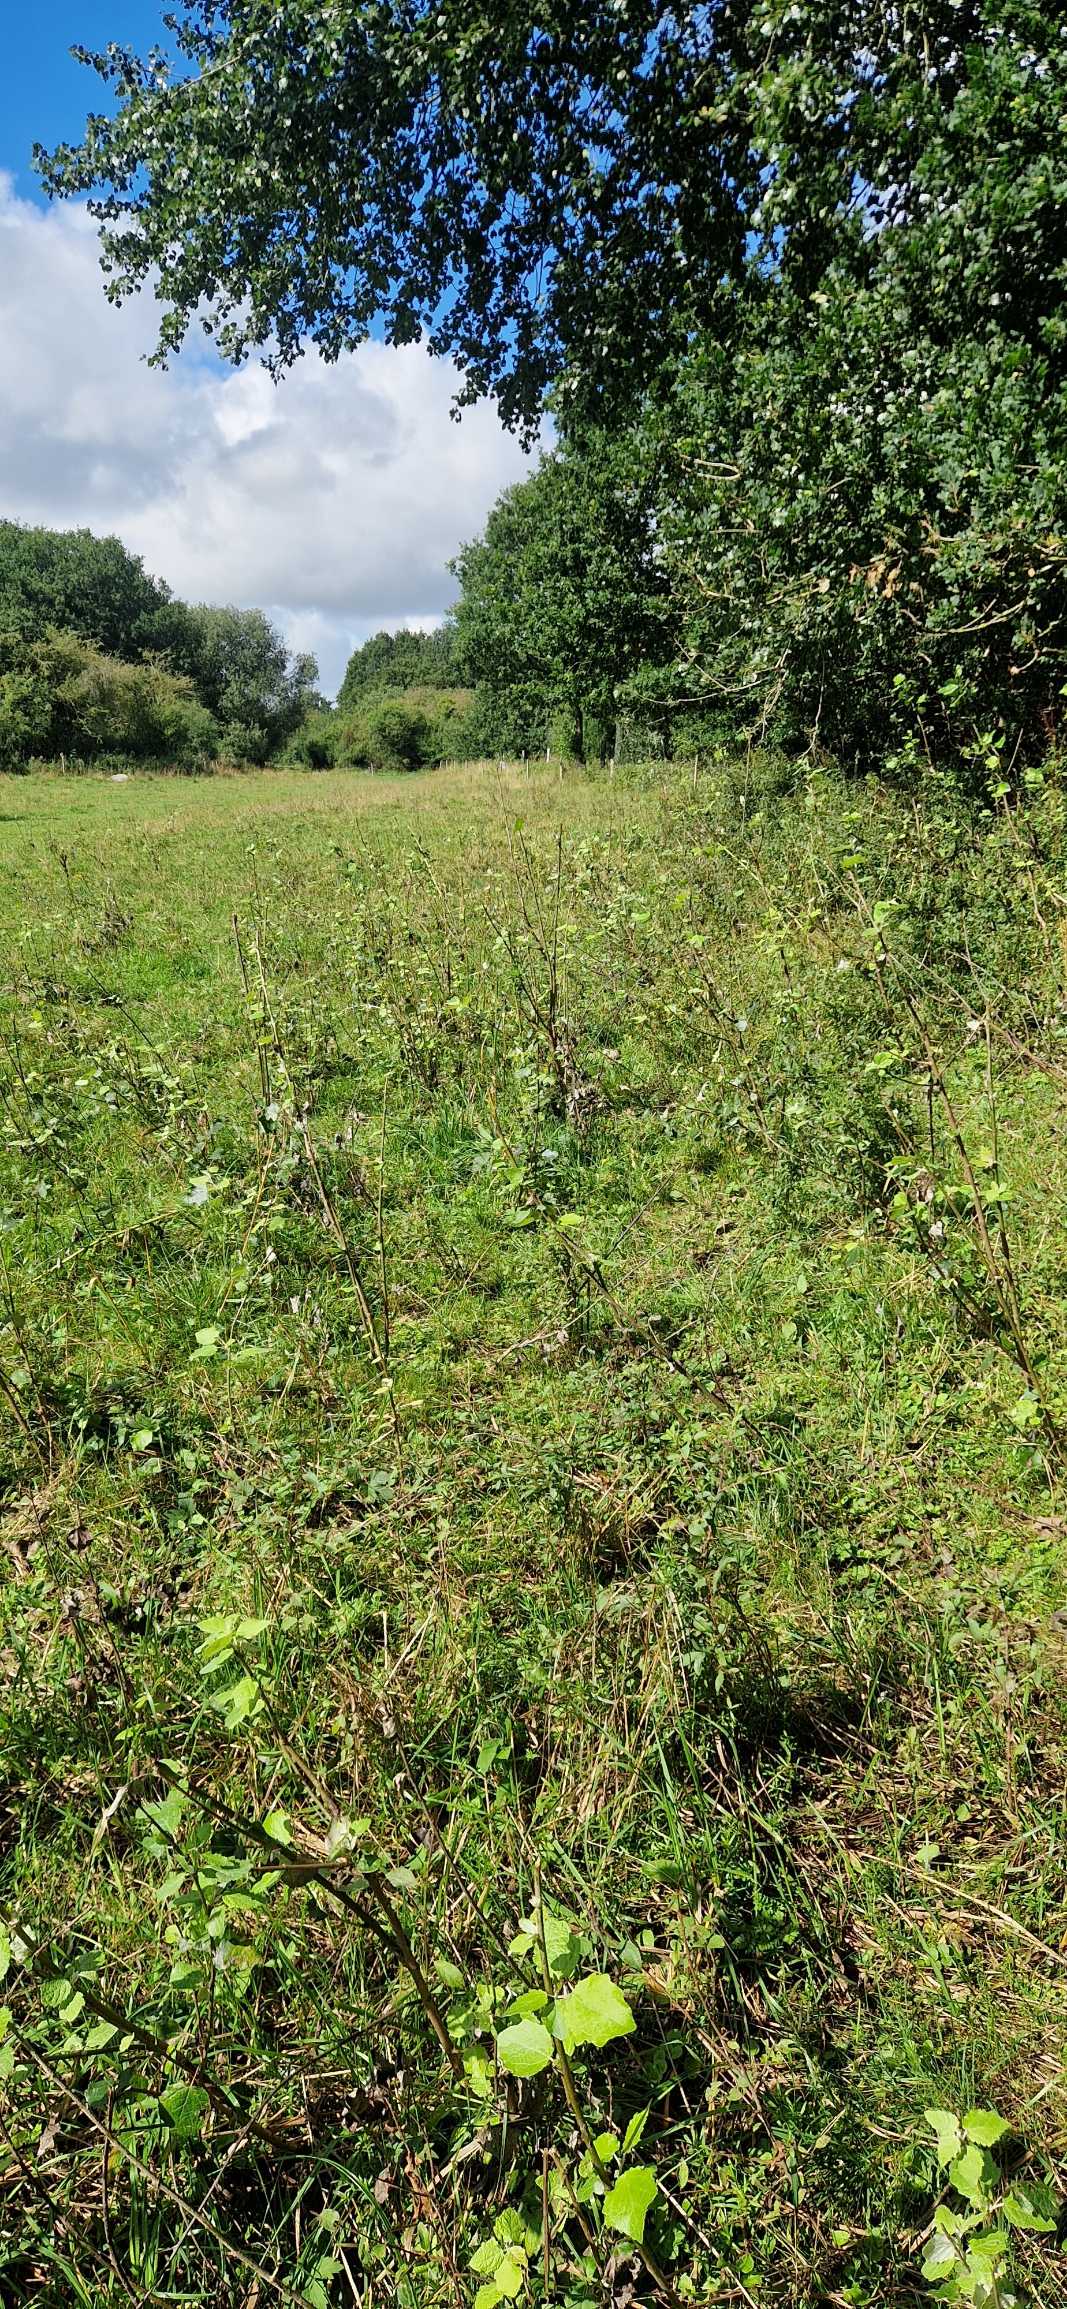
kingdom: Plantae
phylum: Tracheophyta
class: Magnoliopsida
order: Malpighiales
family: Salicaceae
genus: Populus
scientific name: Populus canescens
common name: Grå-poppel
